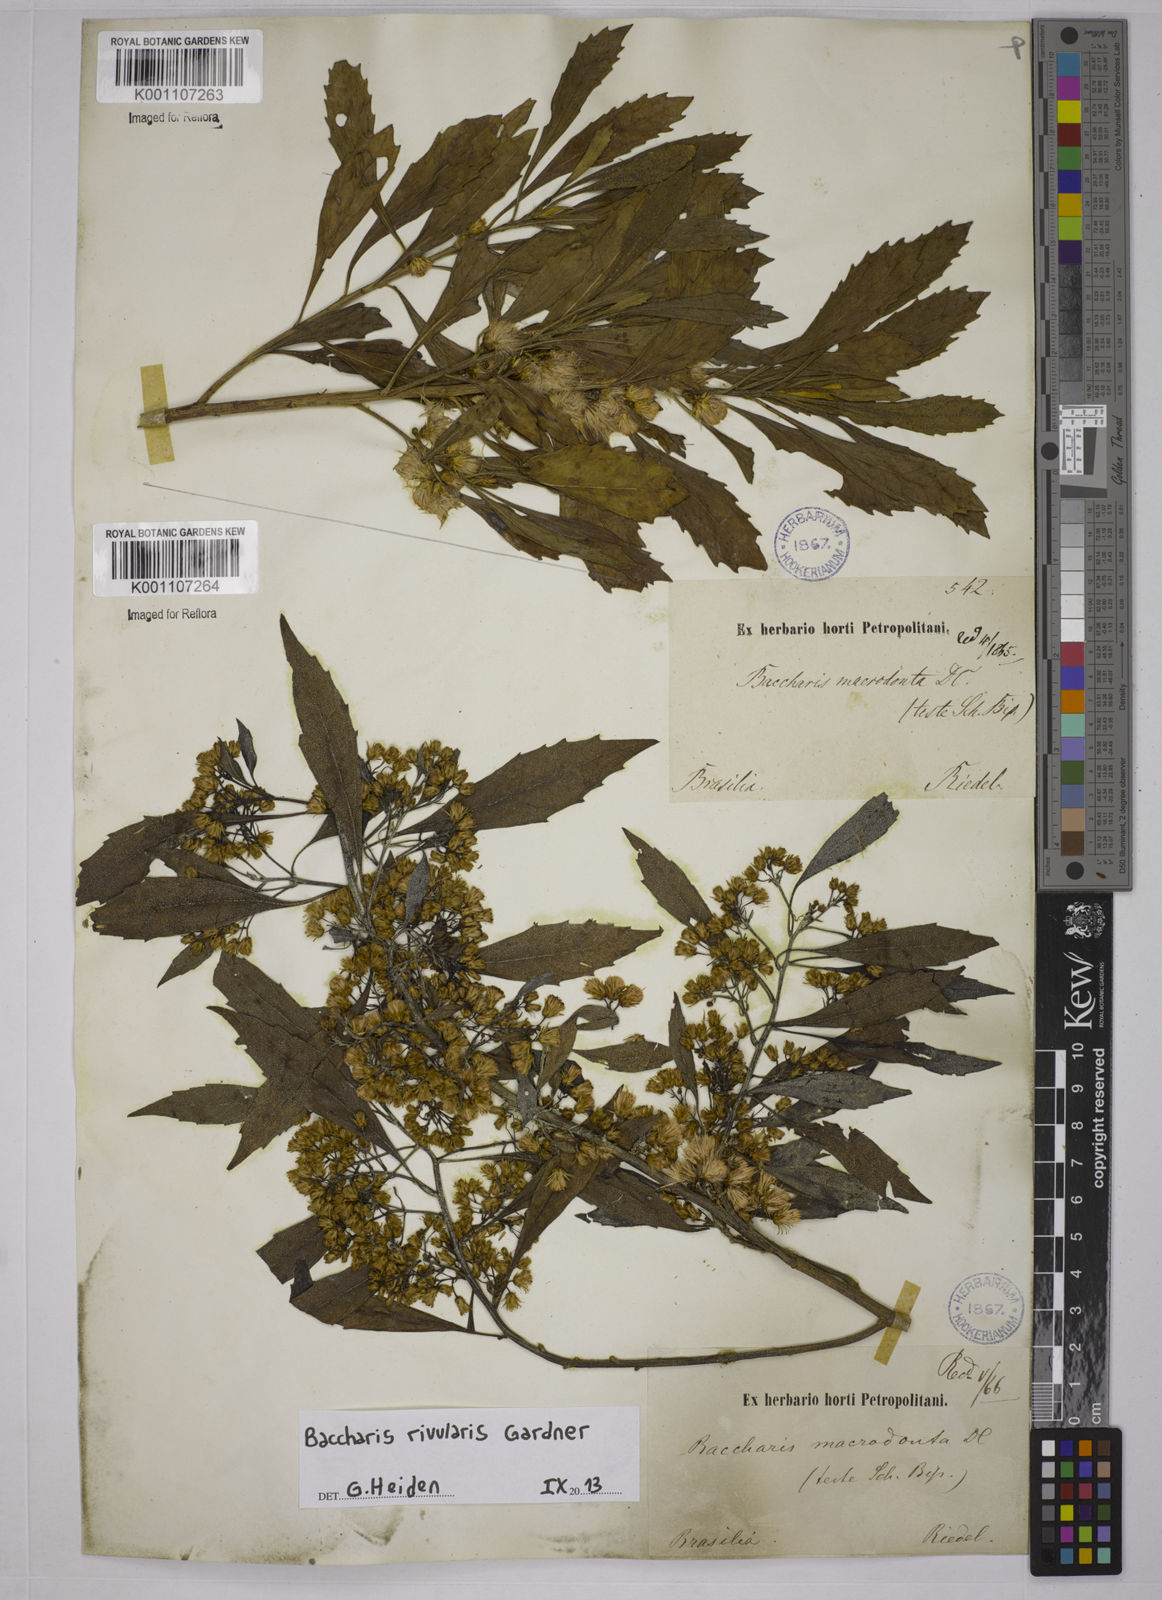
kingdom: Plantae
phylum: Tracheophyta
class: Magnoliopsida
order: Asterales
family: Asteraceae
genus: Baccharis
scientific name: Baccharis rivularis
